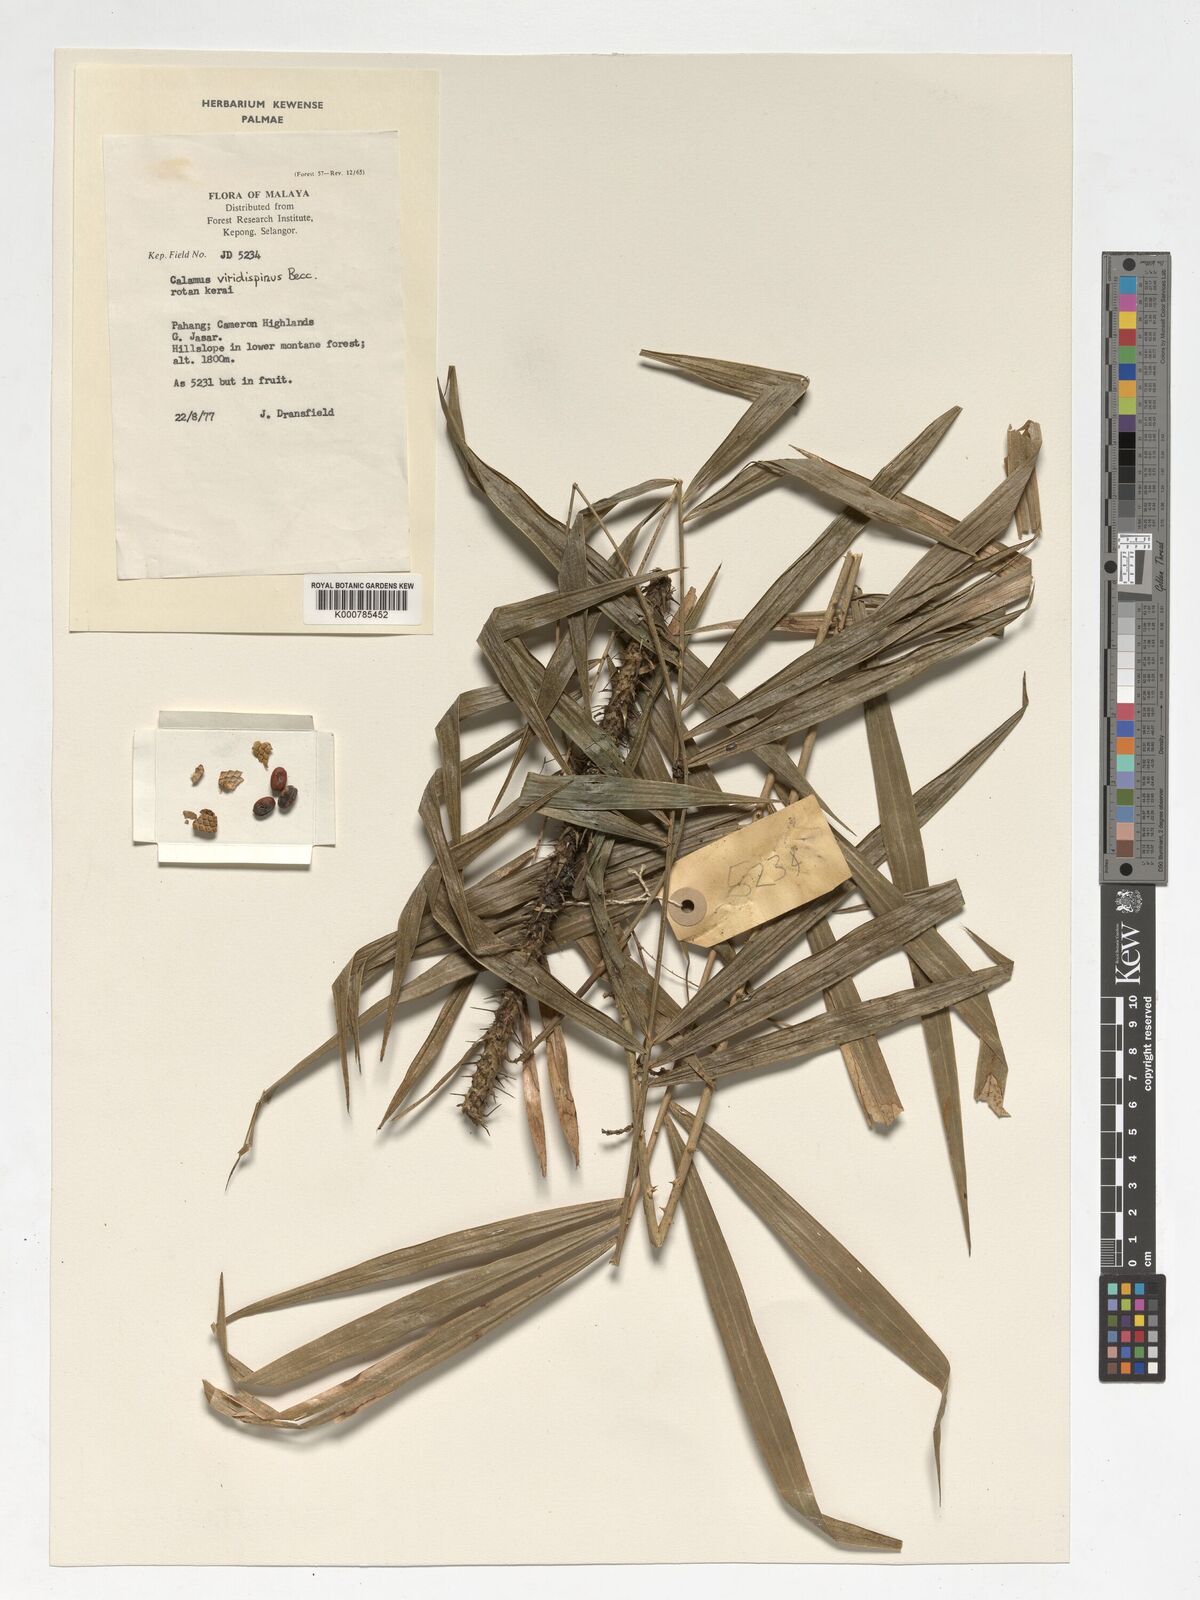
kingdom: Plantae
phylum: Tracheophyta
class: Liliopsida
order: Arecales
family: Arecaceae
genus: Calamus
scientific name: Calamus helferianus
